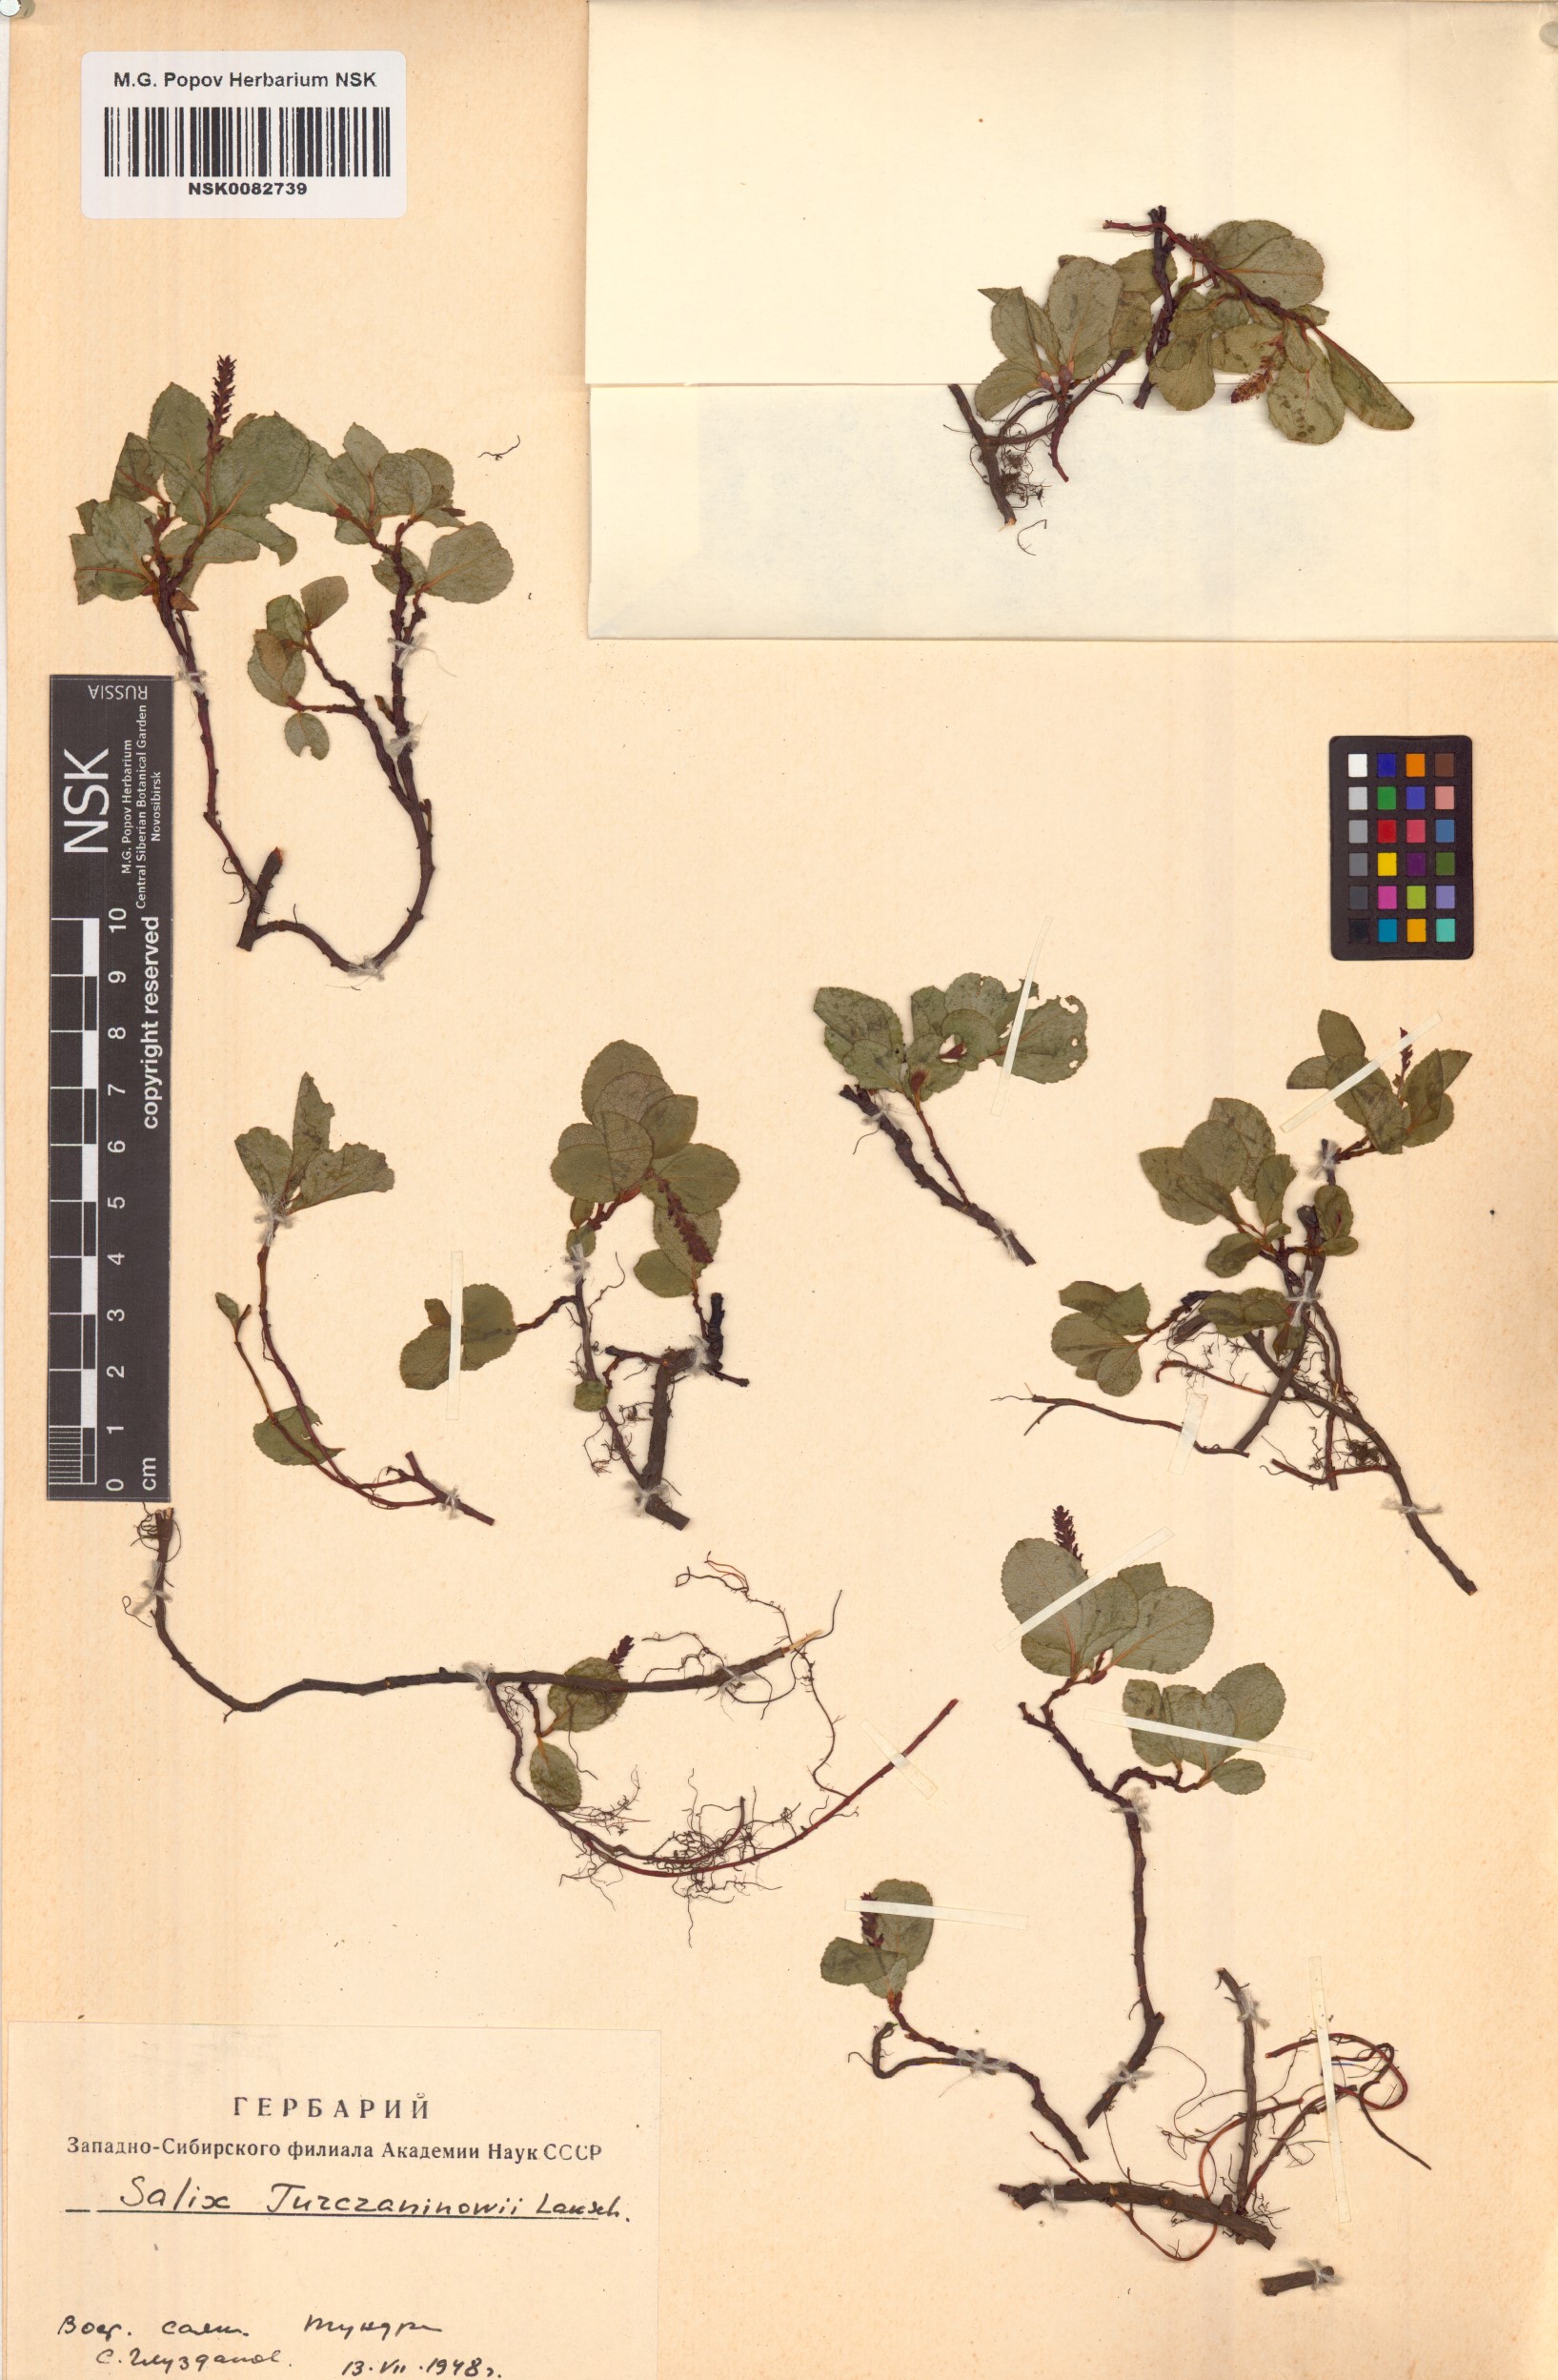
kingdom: Plantae
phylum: Tracheophyta
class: Magnoliopsida
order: Malpighiales
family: Salicaceae
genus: Salix
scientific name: Salix turczaninowii
